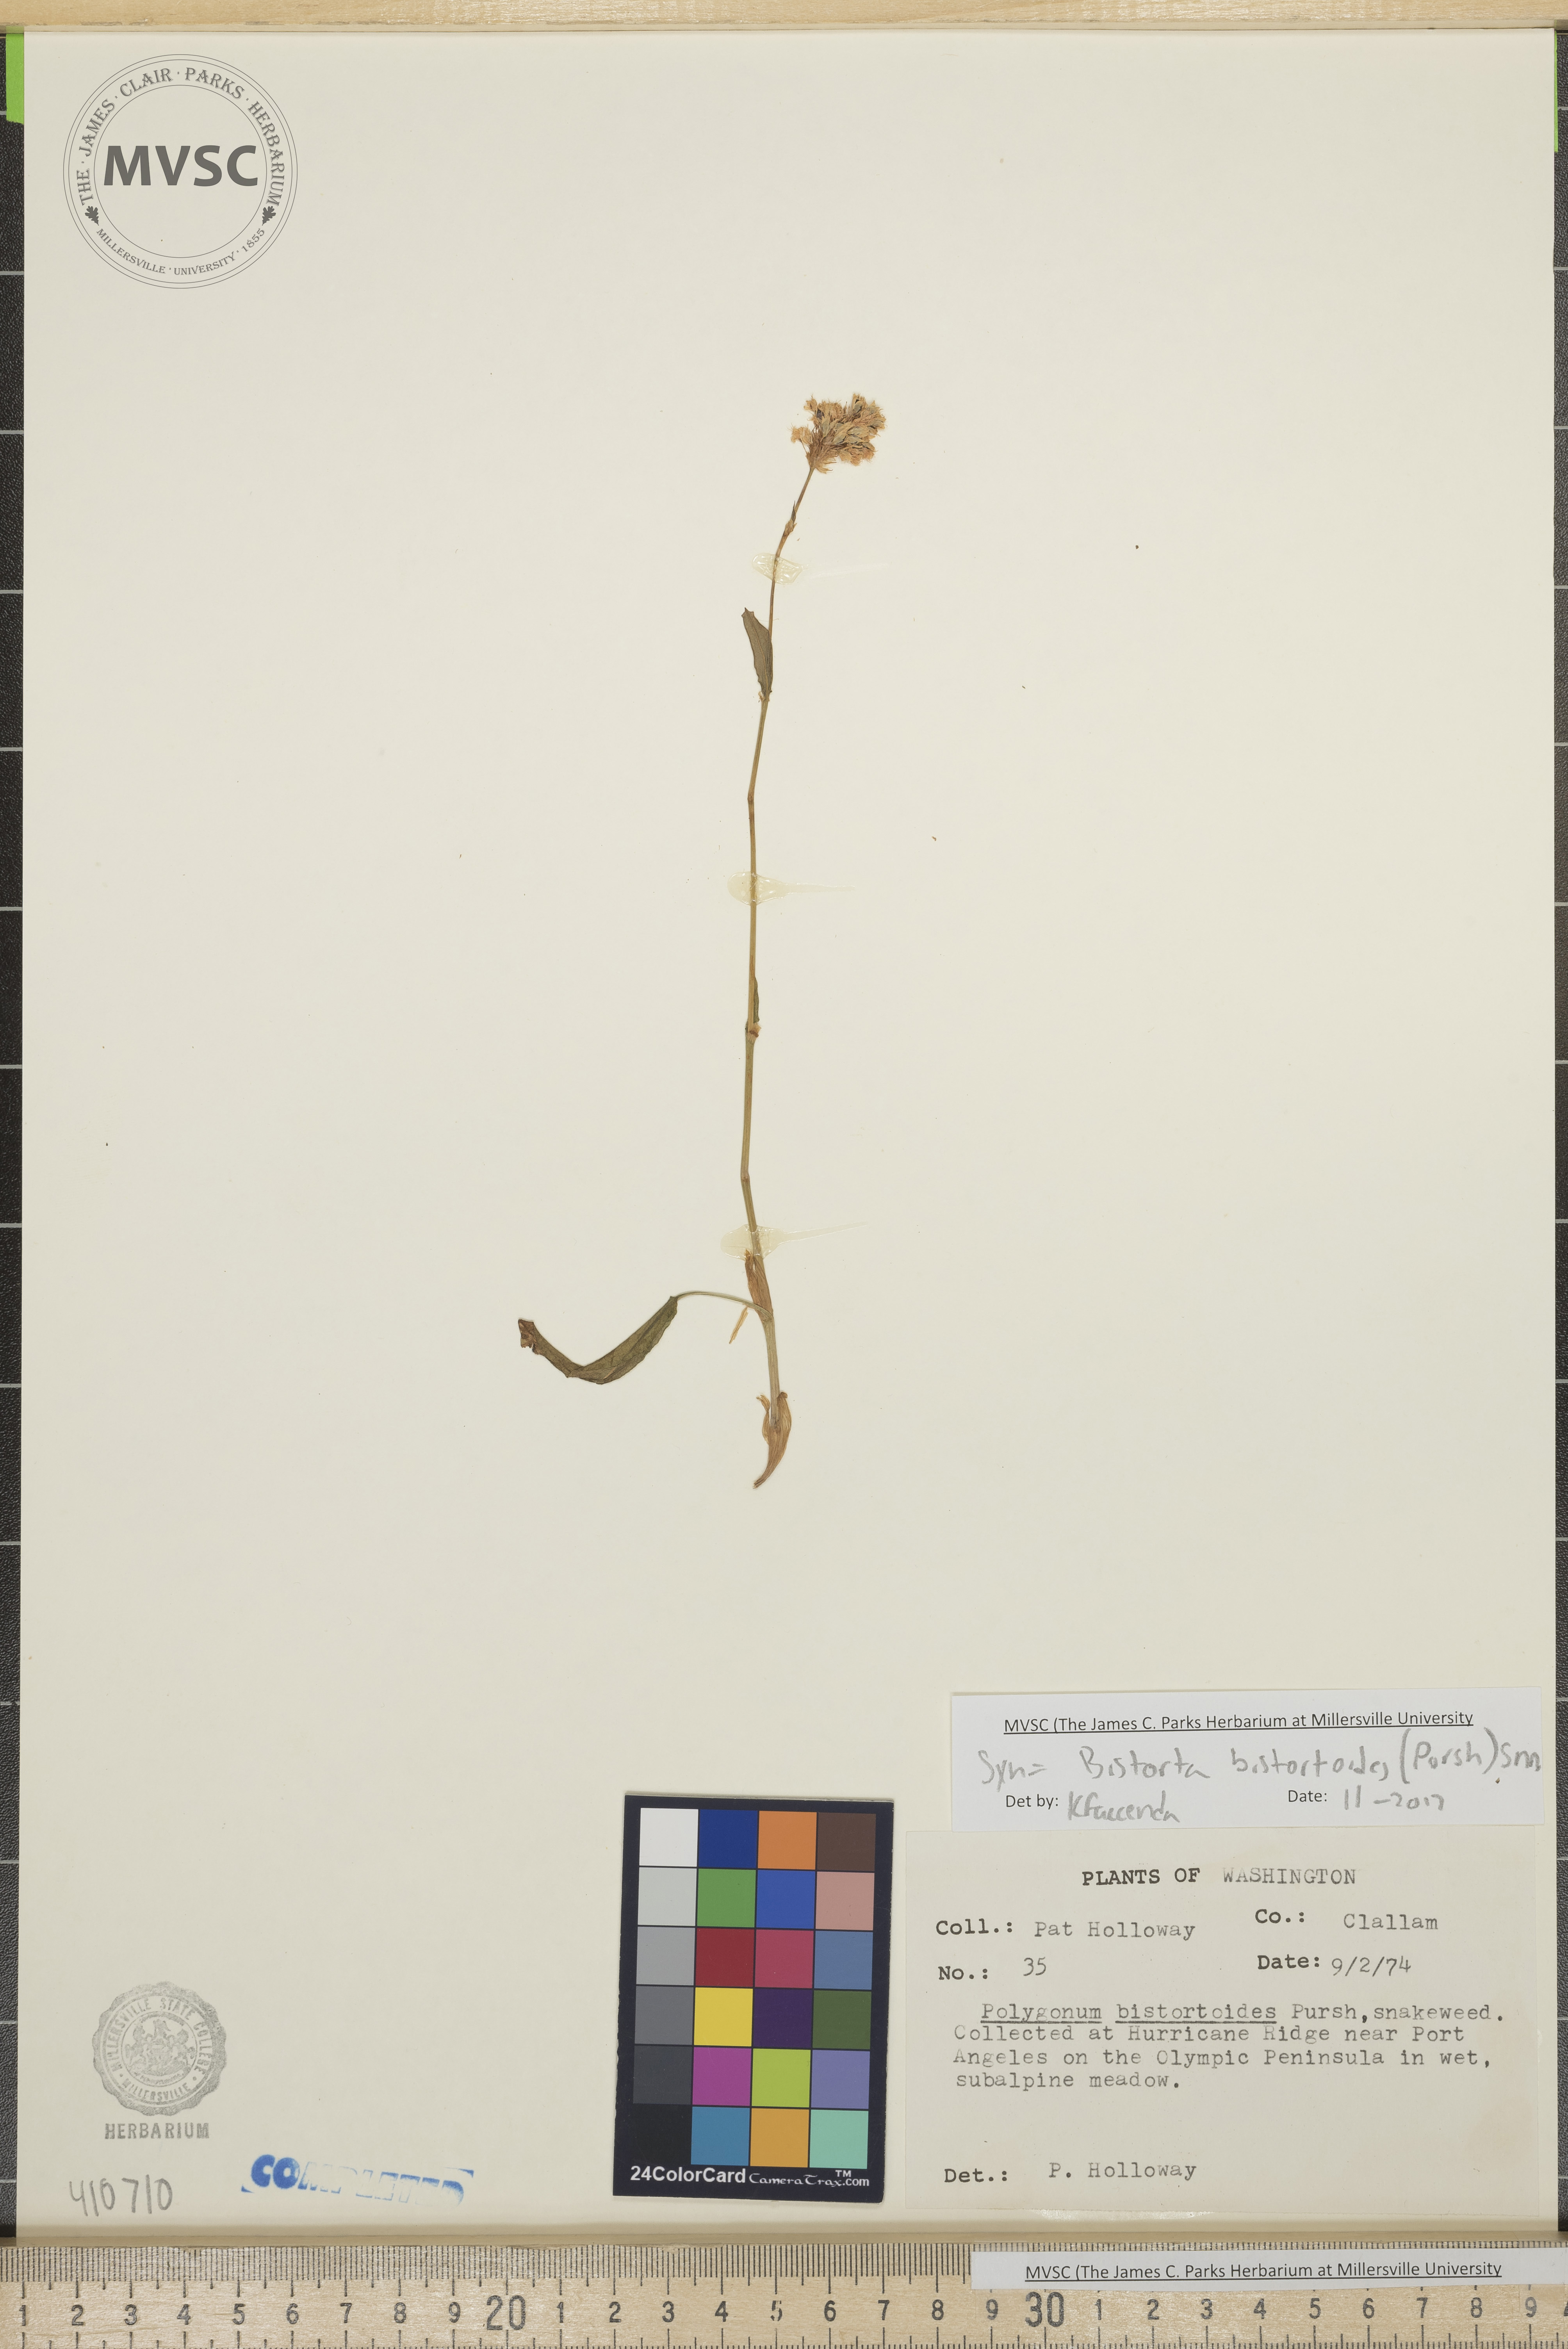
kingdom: Plantae
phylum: Tracheophyta
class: Magnoliopsida
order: Caryophyllales
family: Polygonaceae
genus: Bistorta
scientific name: Bistorta bistortoides
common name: American bistort
